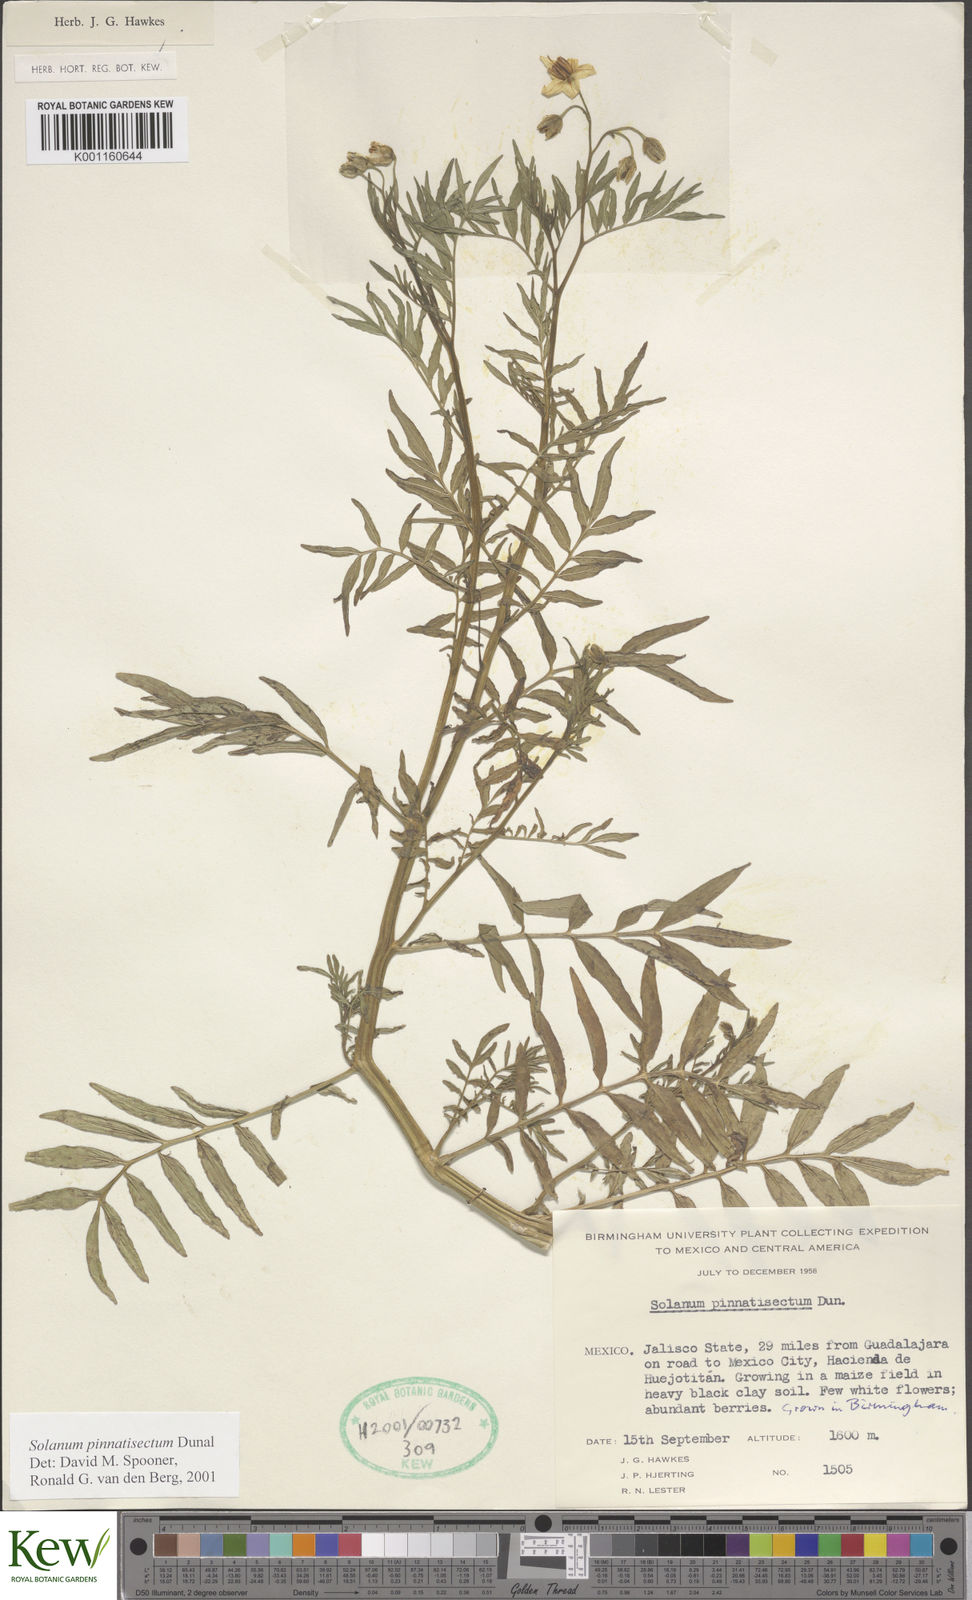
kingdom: Plantae
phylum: Tracheophyta
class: Magnoliopsida
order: Solanales
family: Solanaceae
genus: Solanum
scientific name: Solanum pinnatisectum
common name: Tansyleaf nightshade
